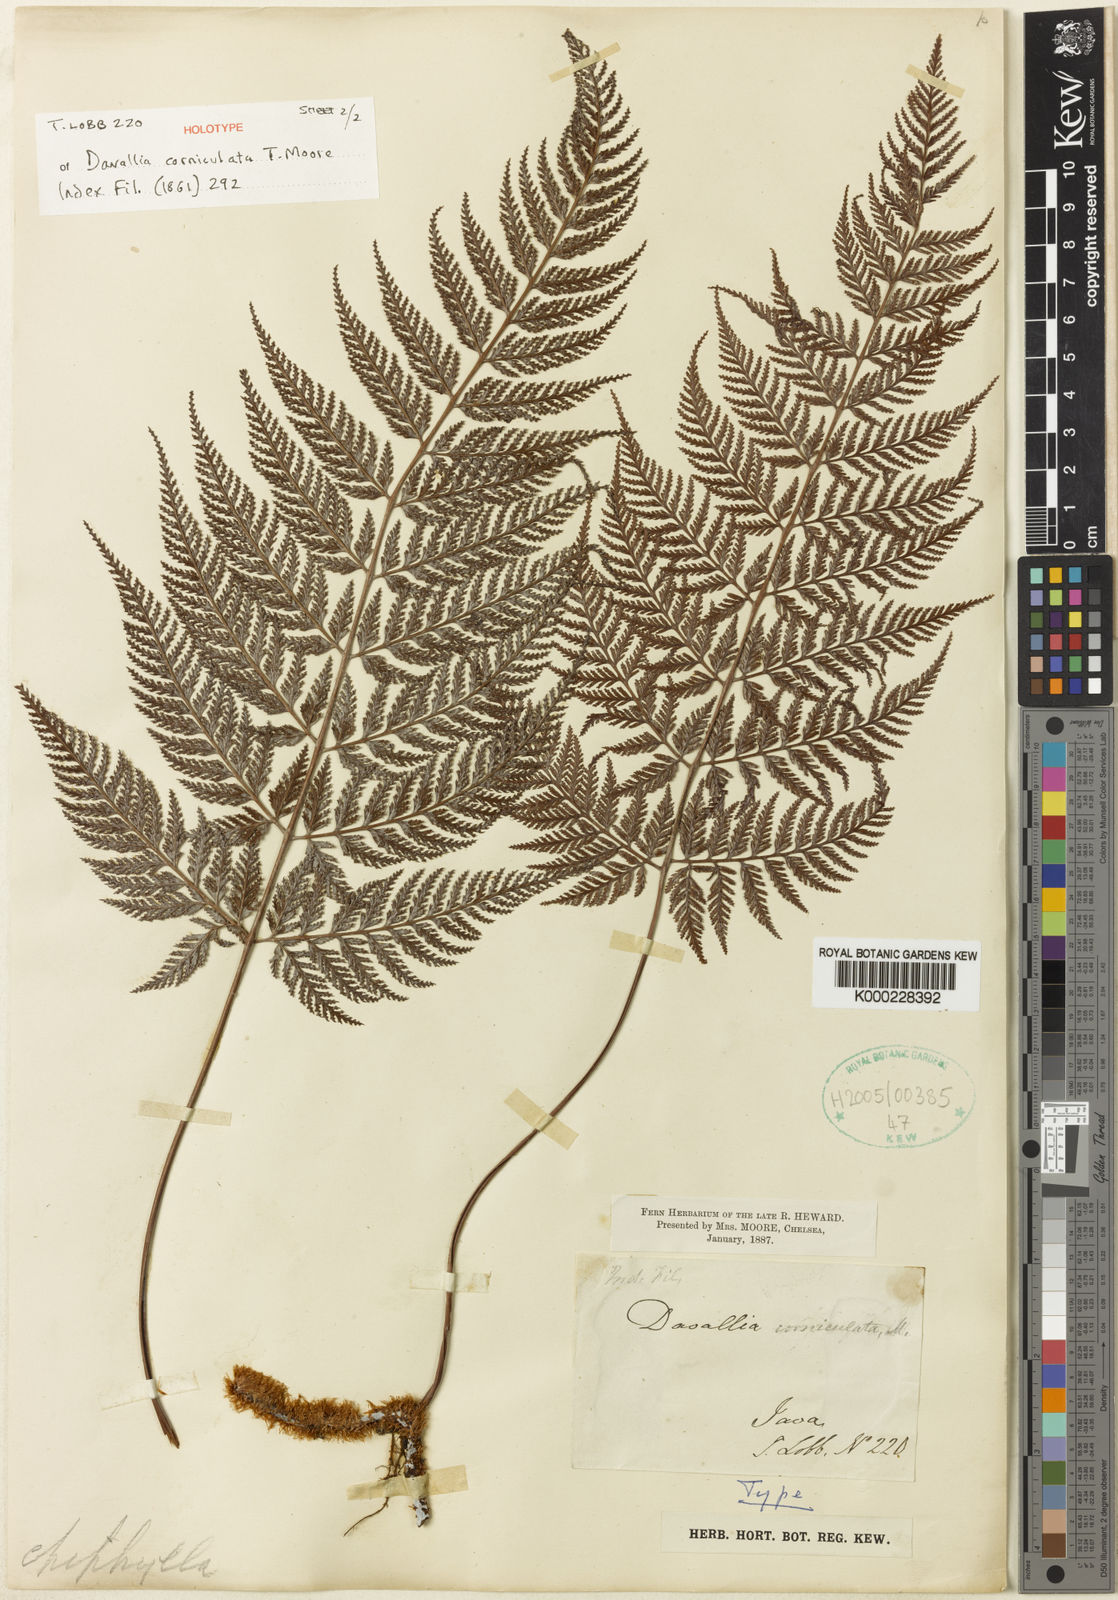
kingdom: Plantae
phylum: Tracheophyta
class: Polypodiopsida
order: Polypodiales
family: Davalliaceae
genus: Davallia
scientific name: Davallia corniculata
